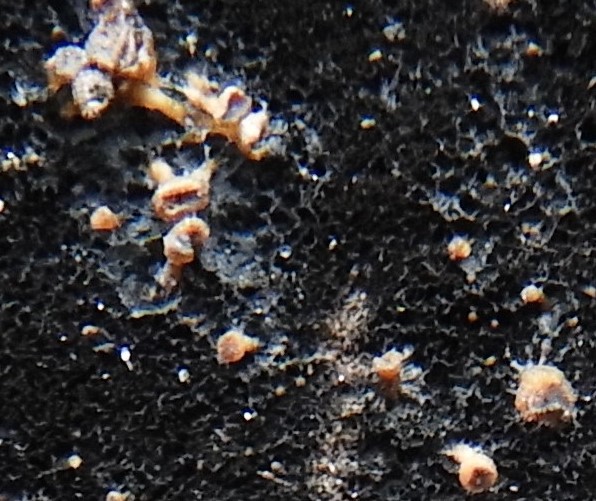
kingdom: Fungi
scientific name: Fungi
